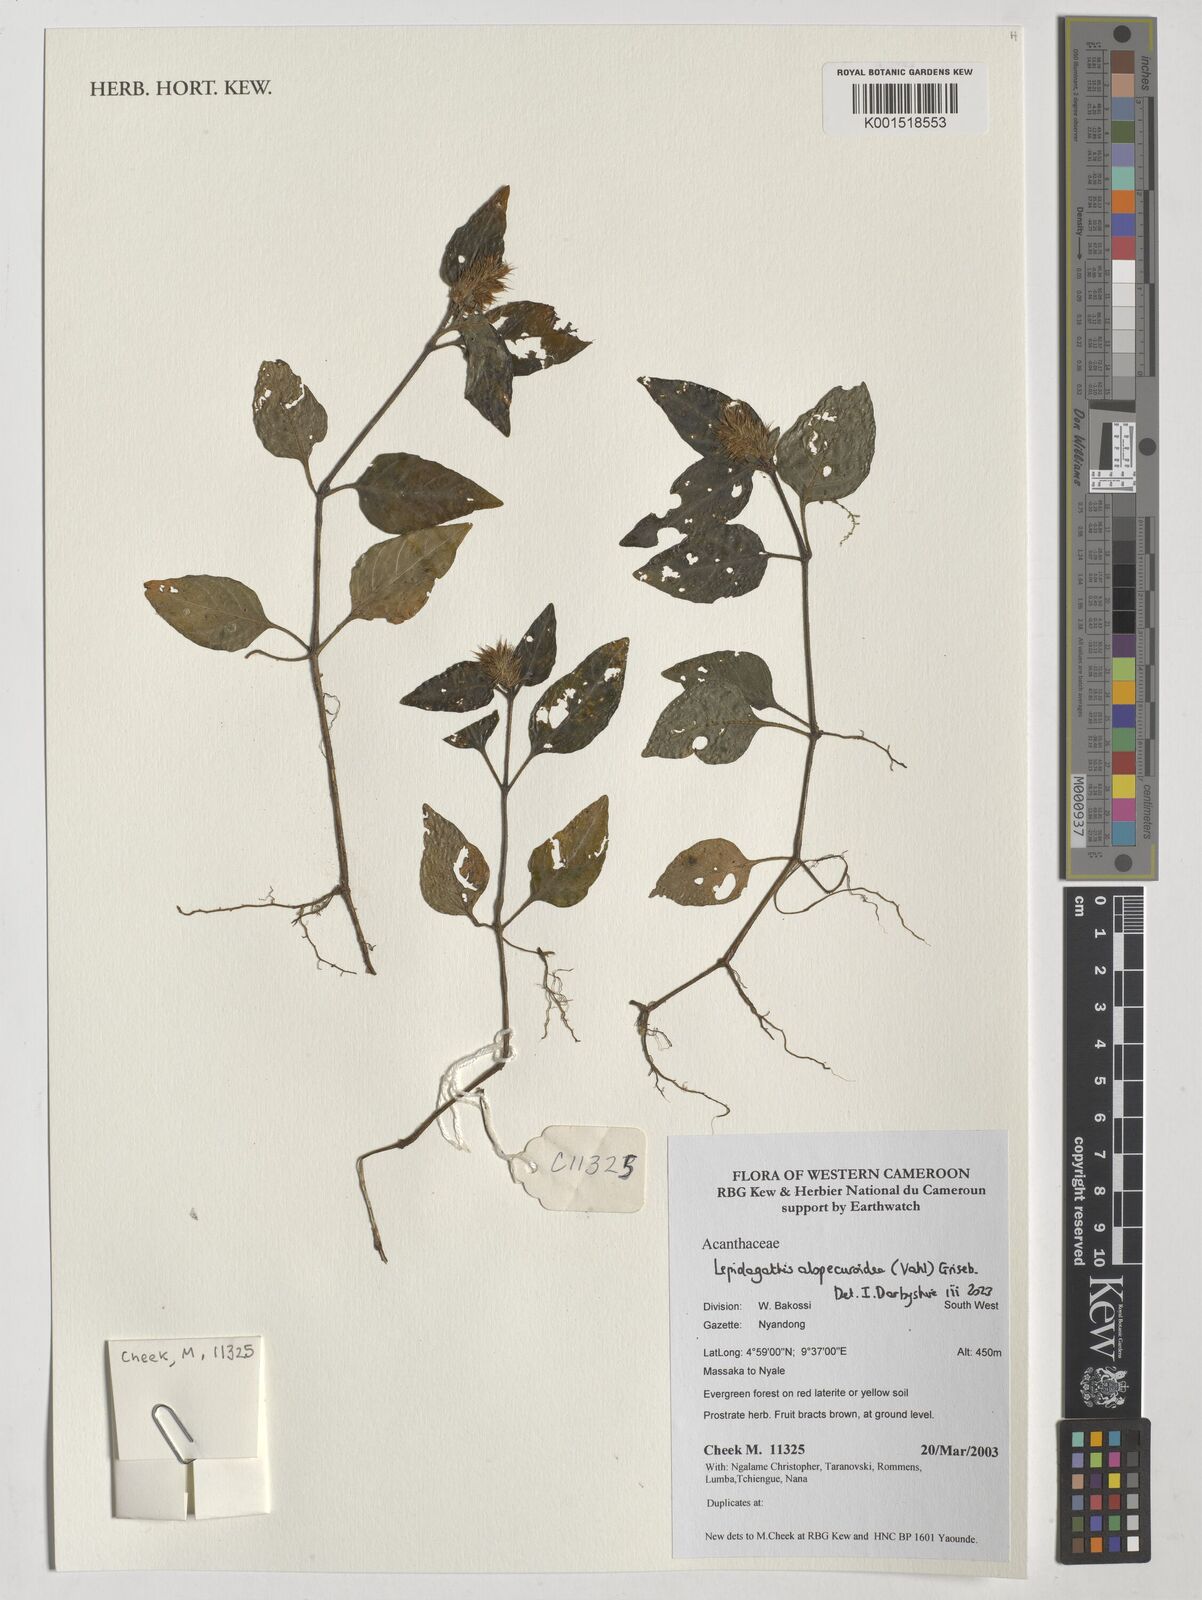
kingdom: Plantae
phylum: Tracheophyta
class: Magnoliopsida
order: Lamiales
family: Acanthaceae
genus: Lepidagathis
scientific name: Lepidagathis alopecuroidea
